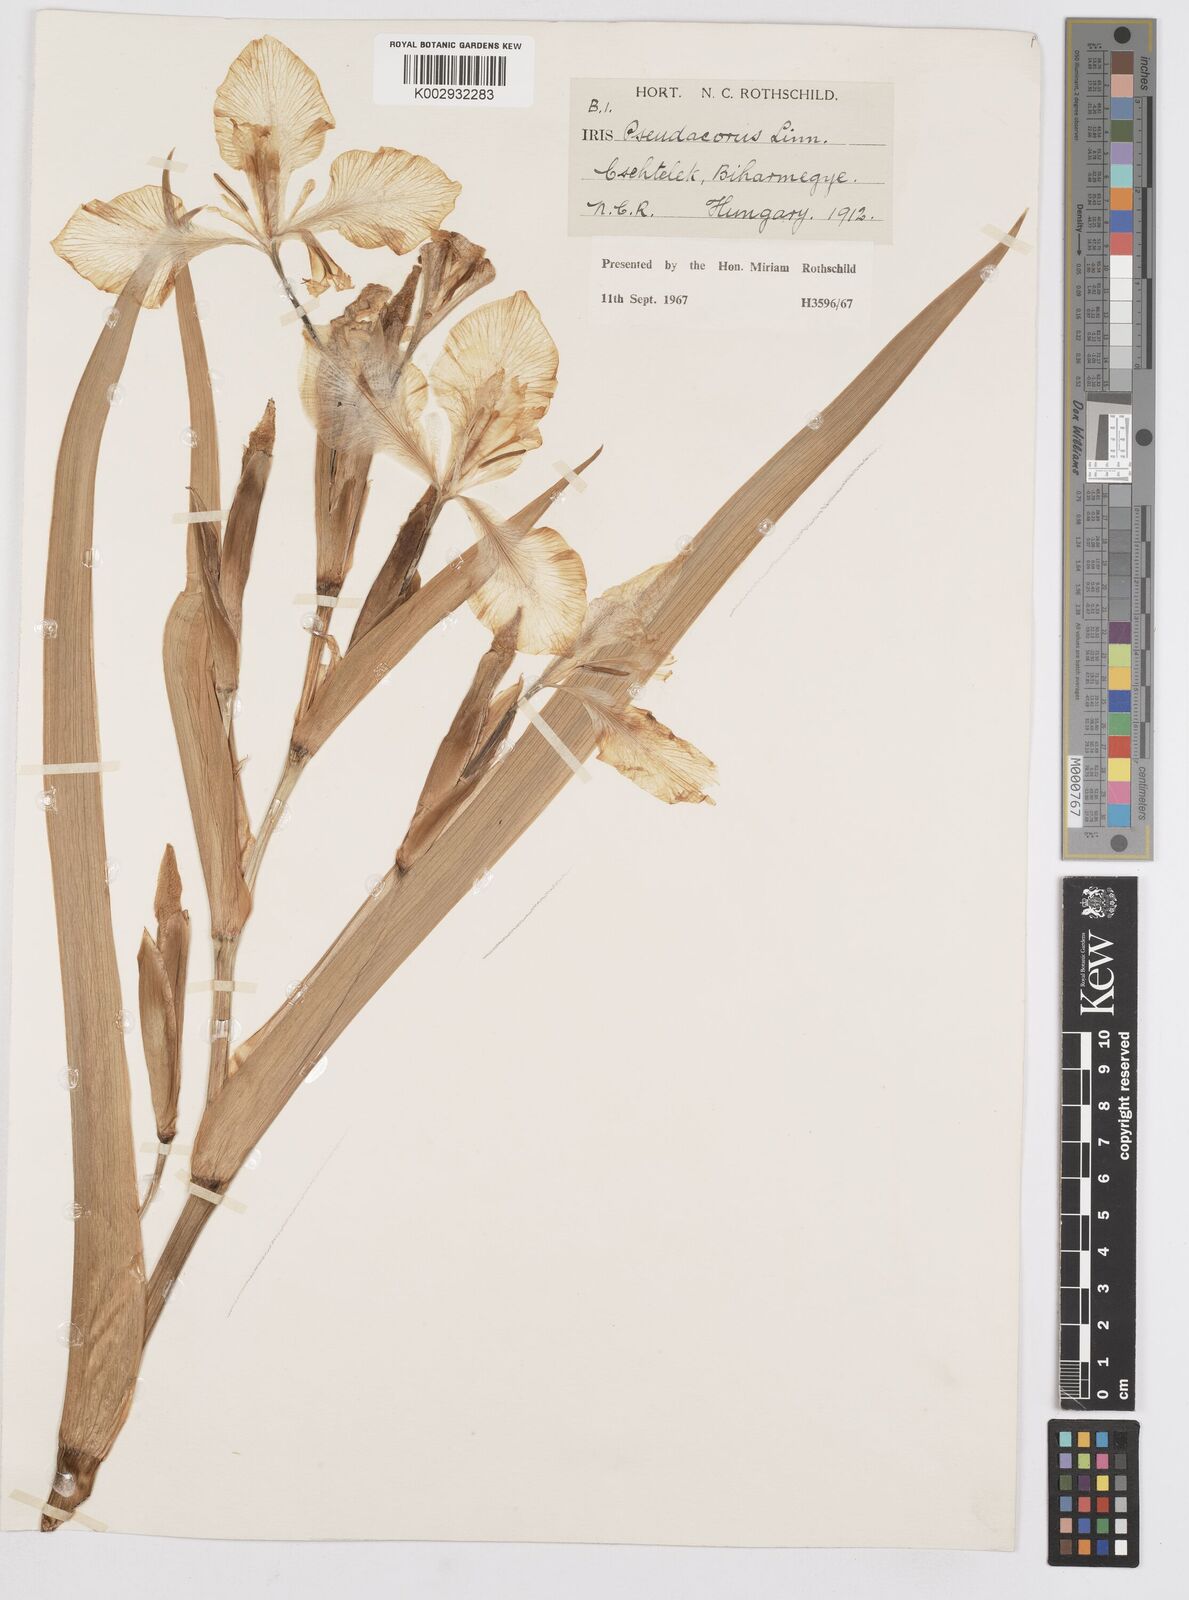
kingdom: Plantae
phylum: Tracheophyta
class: Liliopsida
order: Asparagales
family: Iridaceae
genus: Iris
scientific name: Iris pseudacorus
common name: Yellow flag
